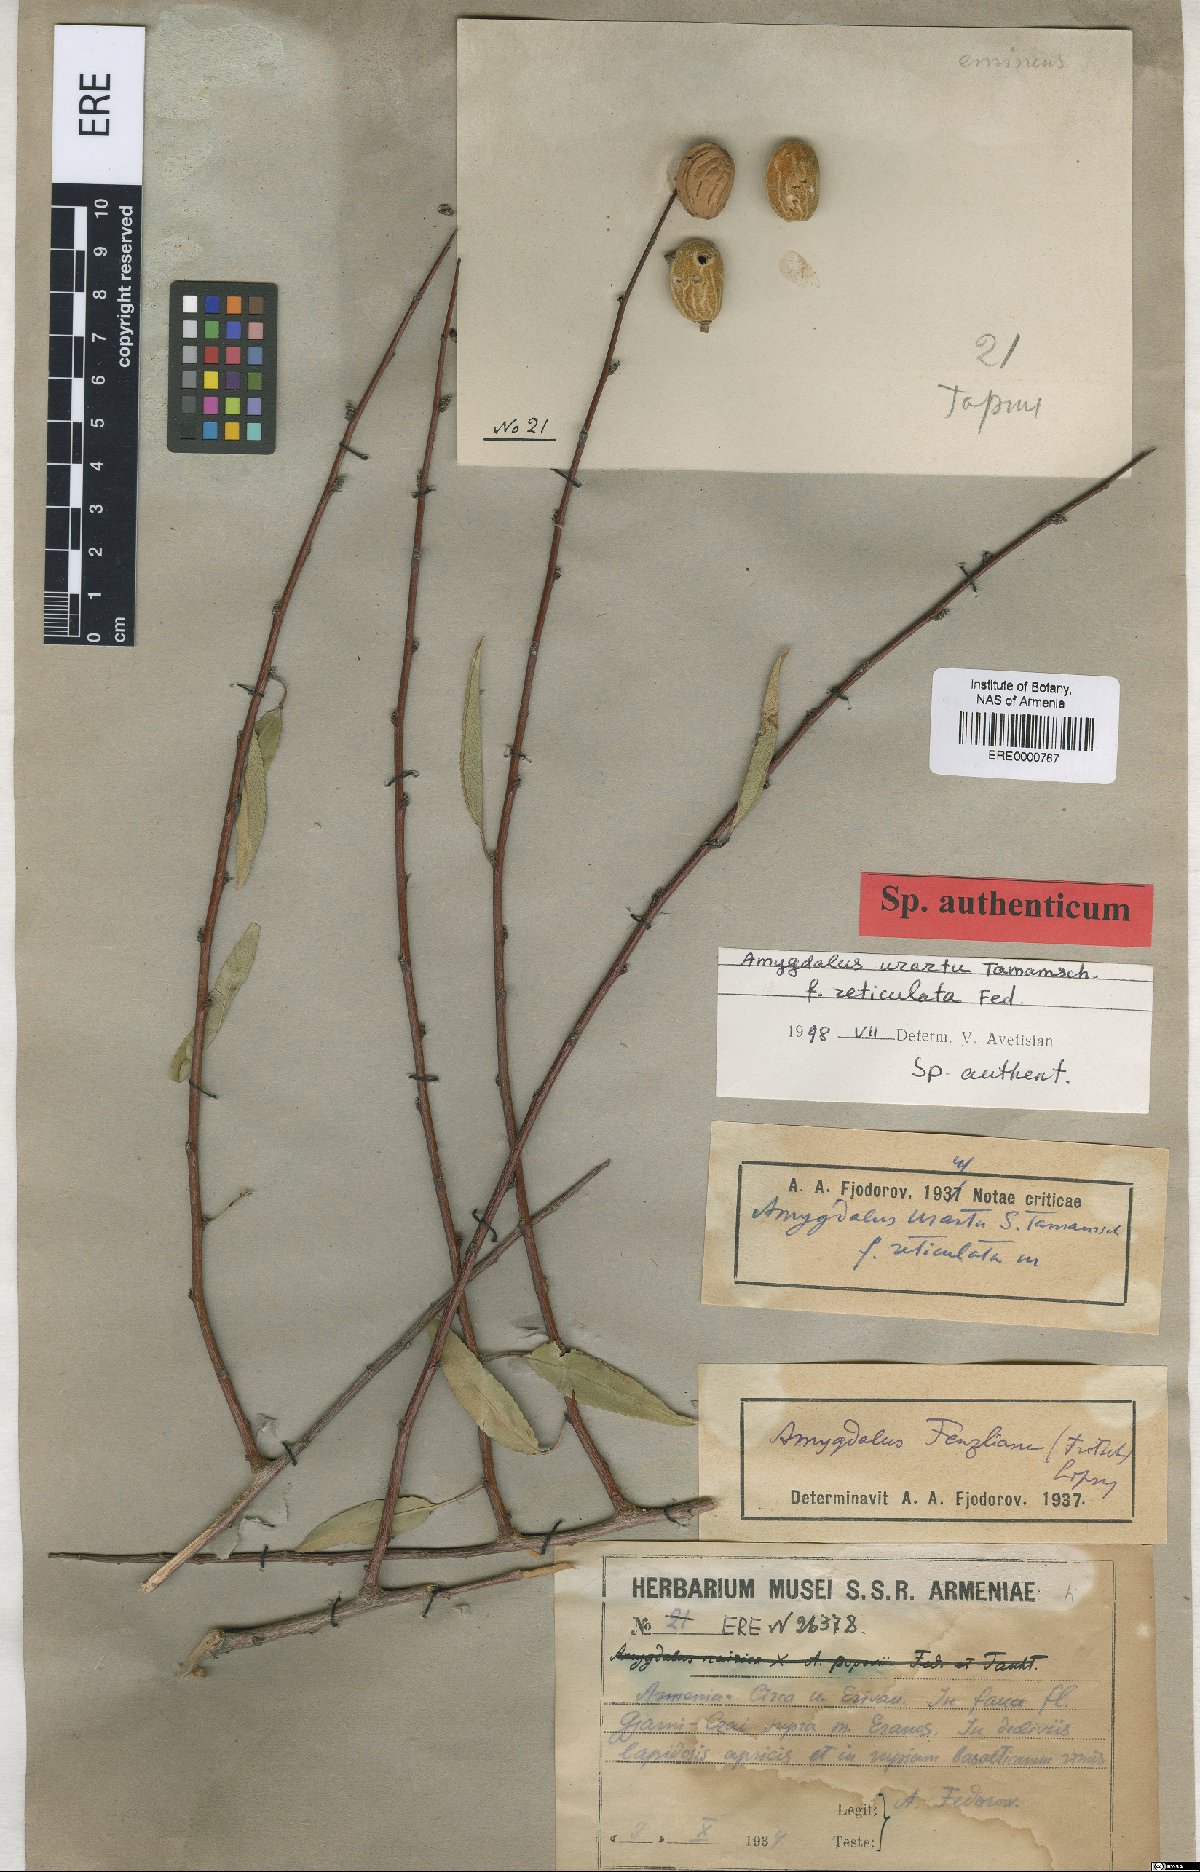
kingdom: Plantae
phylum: Tracheophyta
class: Magnoliopsida
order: Rosales
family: Rosaceae
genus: Prunus
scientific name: Prunus urartu
